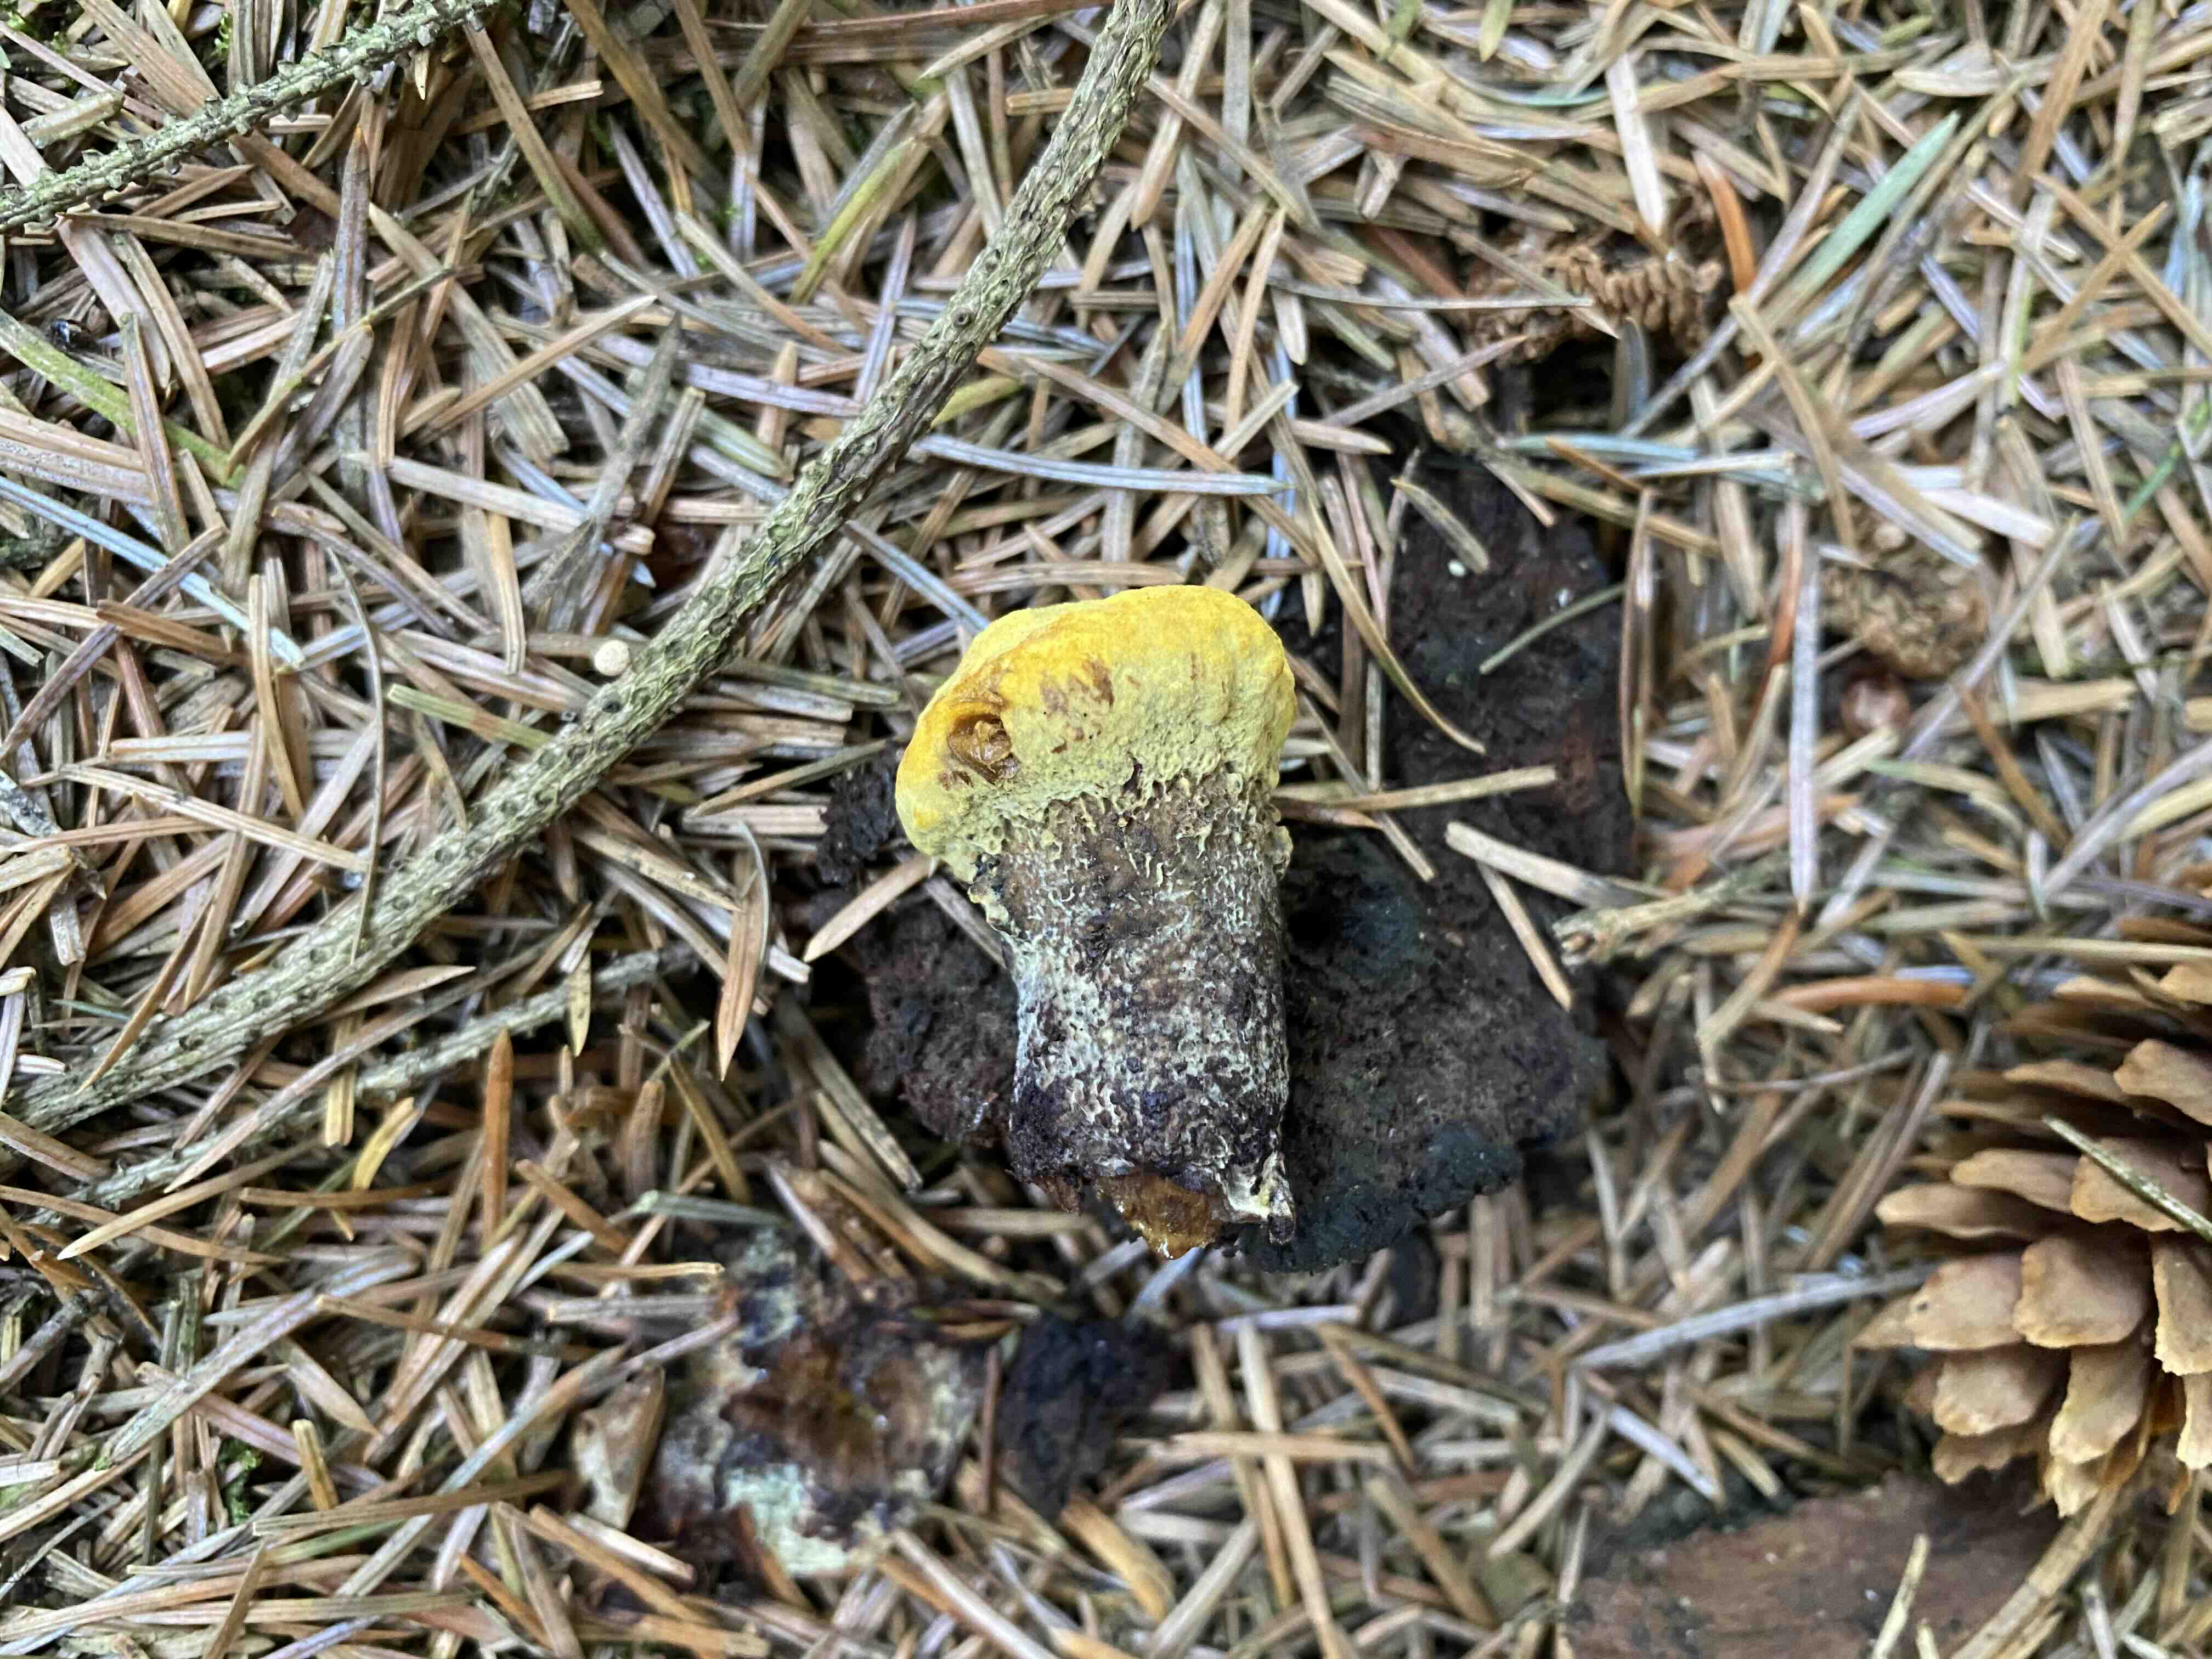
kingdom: Fungi
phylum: Basidiomycota
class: Agaricomycetes
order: Polyporales
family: Laetiporaceae
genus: Phaeolus
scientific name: Phaeolus schweinitzii
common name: brunporesvamp
